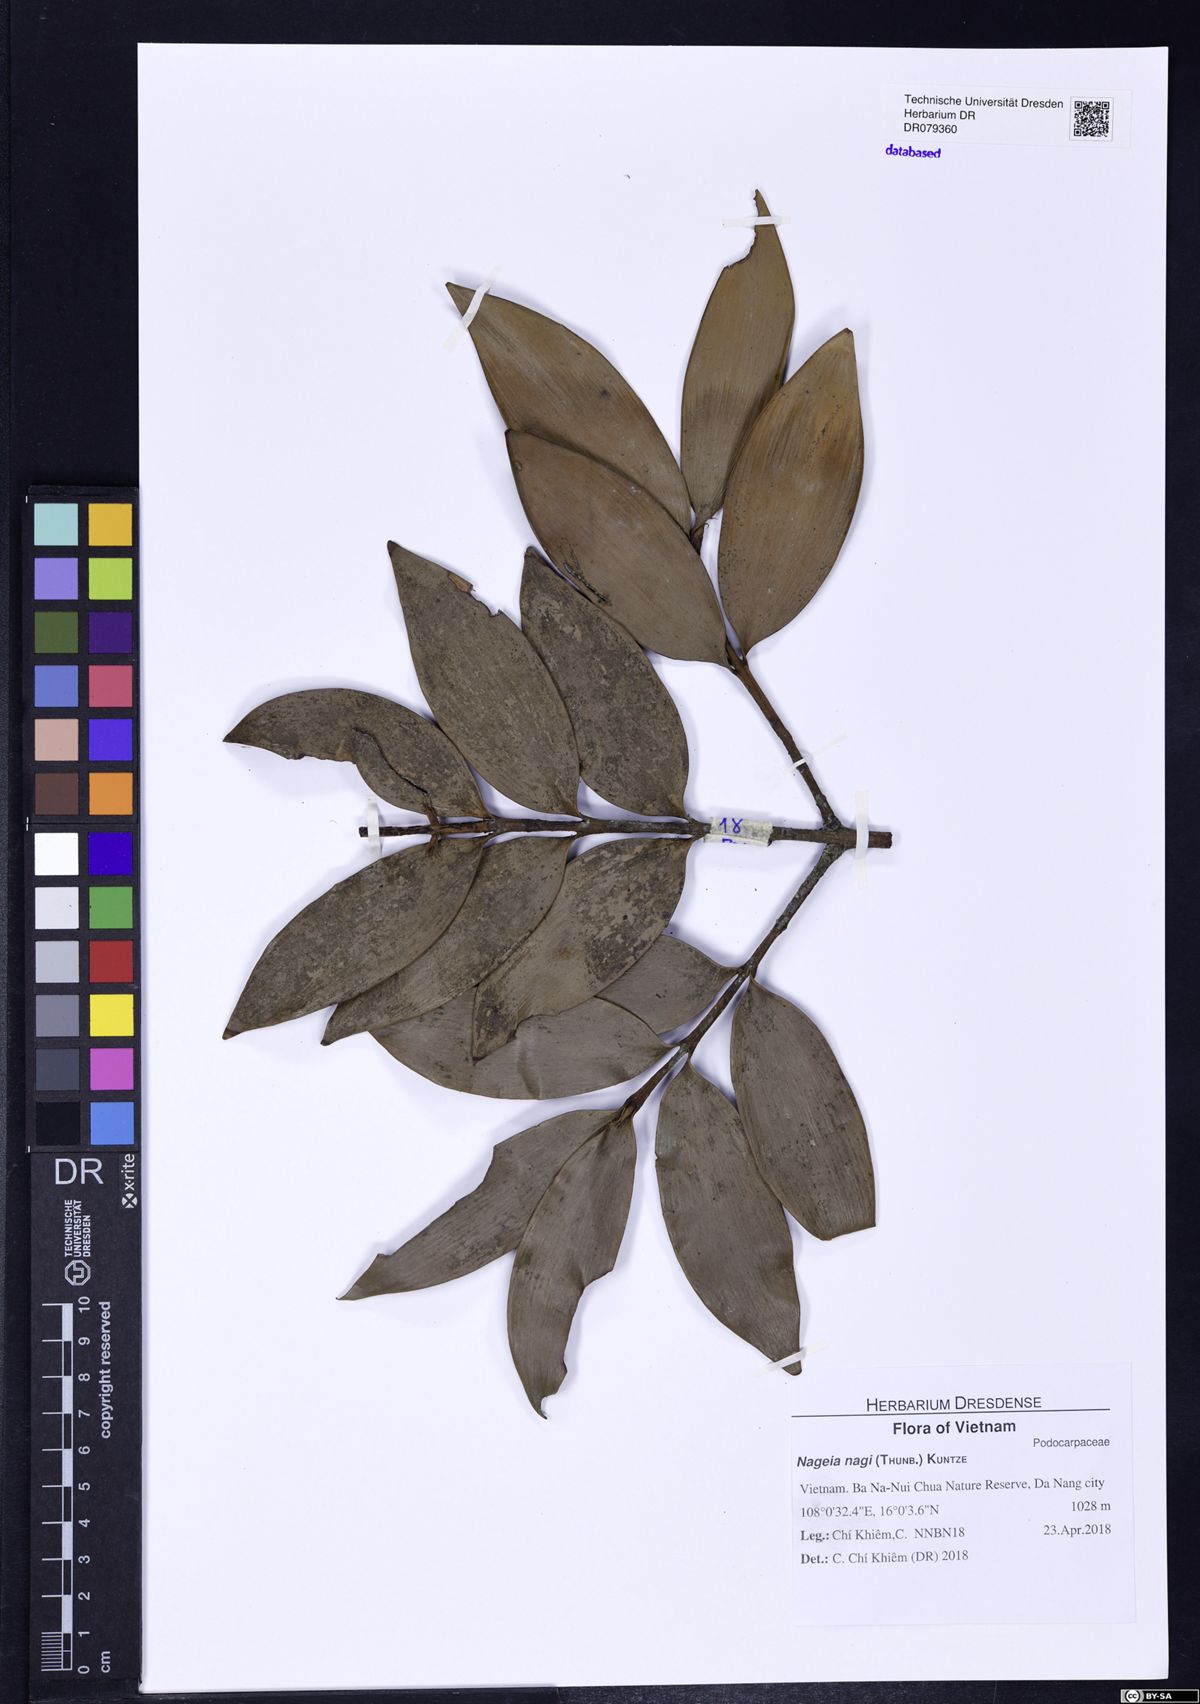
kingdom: Plantae
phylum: Tracheophyta
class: Pinopsida
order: Pinales
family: Podocarpaceae
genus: Nageia
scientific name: Nageia nagi
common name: Kaphal
